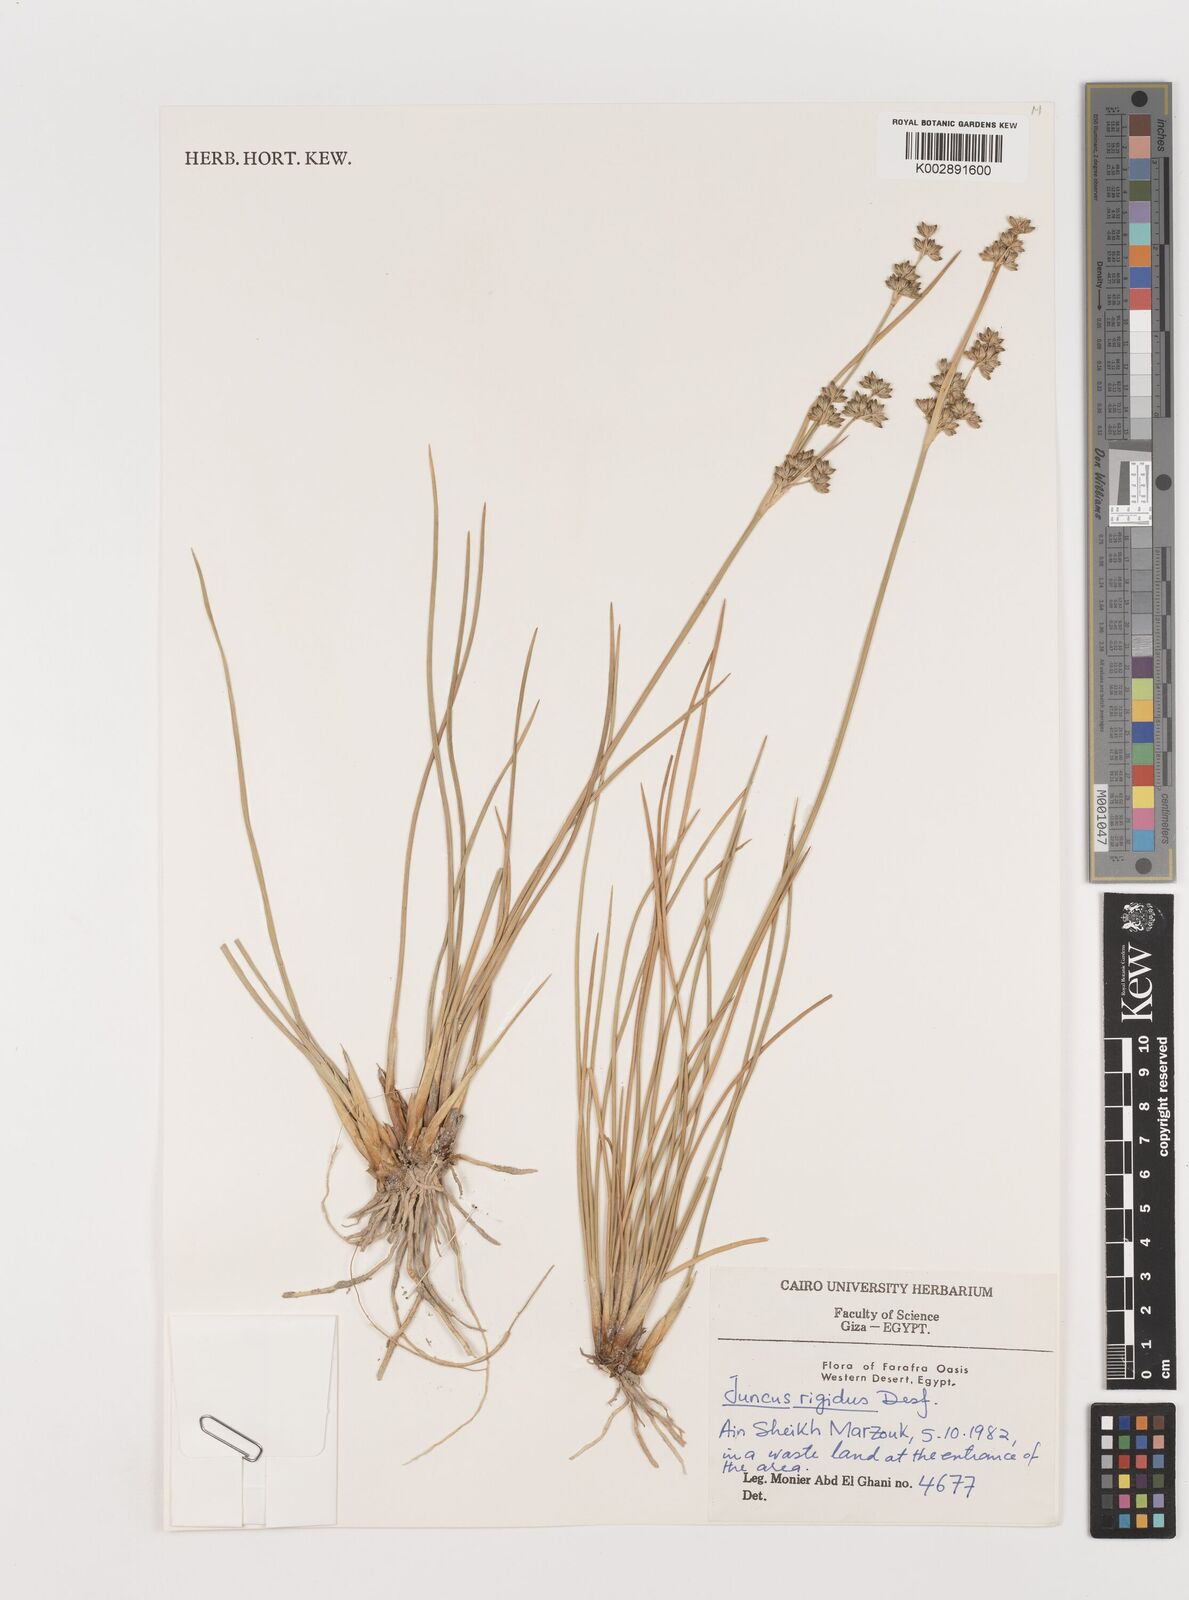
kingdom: Plantae
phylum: Tracheophyta
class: Liliopsida
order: Poales
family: Juncaceae
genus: Juncus
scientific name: Juncus rigidus
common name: Hard sea rush
